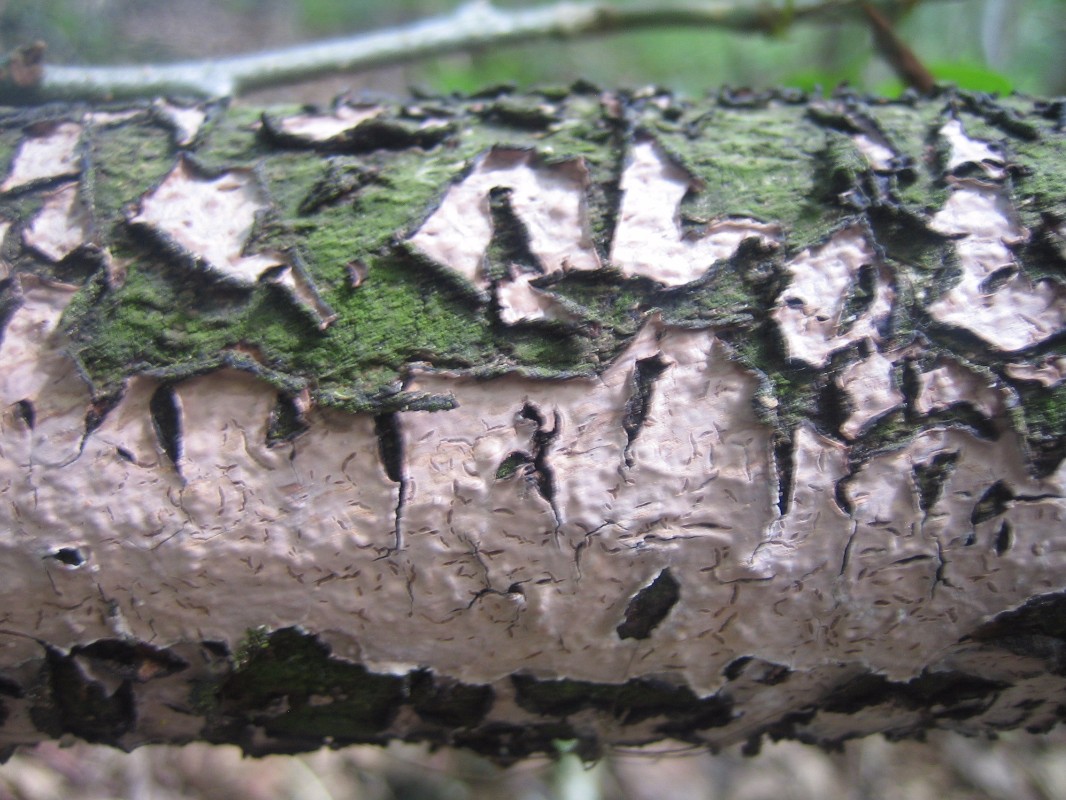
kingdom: Fungi
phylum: Basidiomycota
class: Agaricomycetes
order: Russulales
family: Peniophoraceae
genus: Peniophora
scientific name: Peniophora quercina
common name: ege-voksskind
